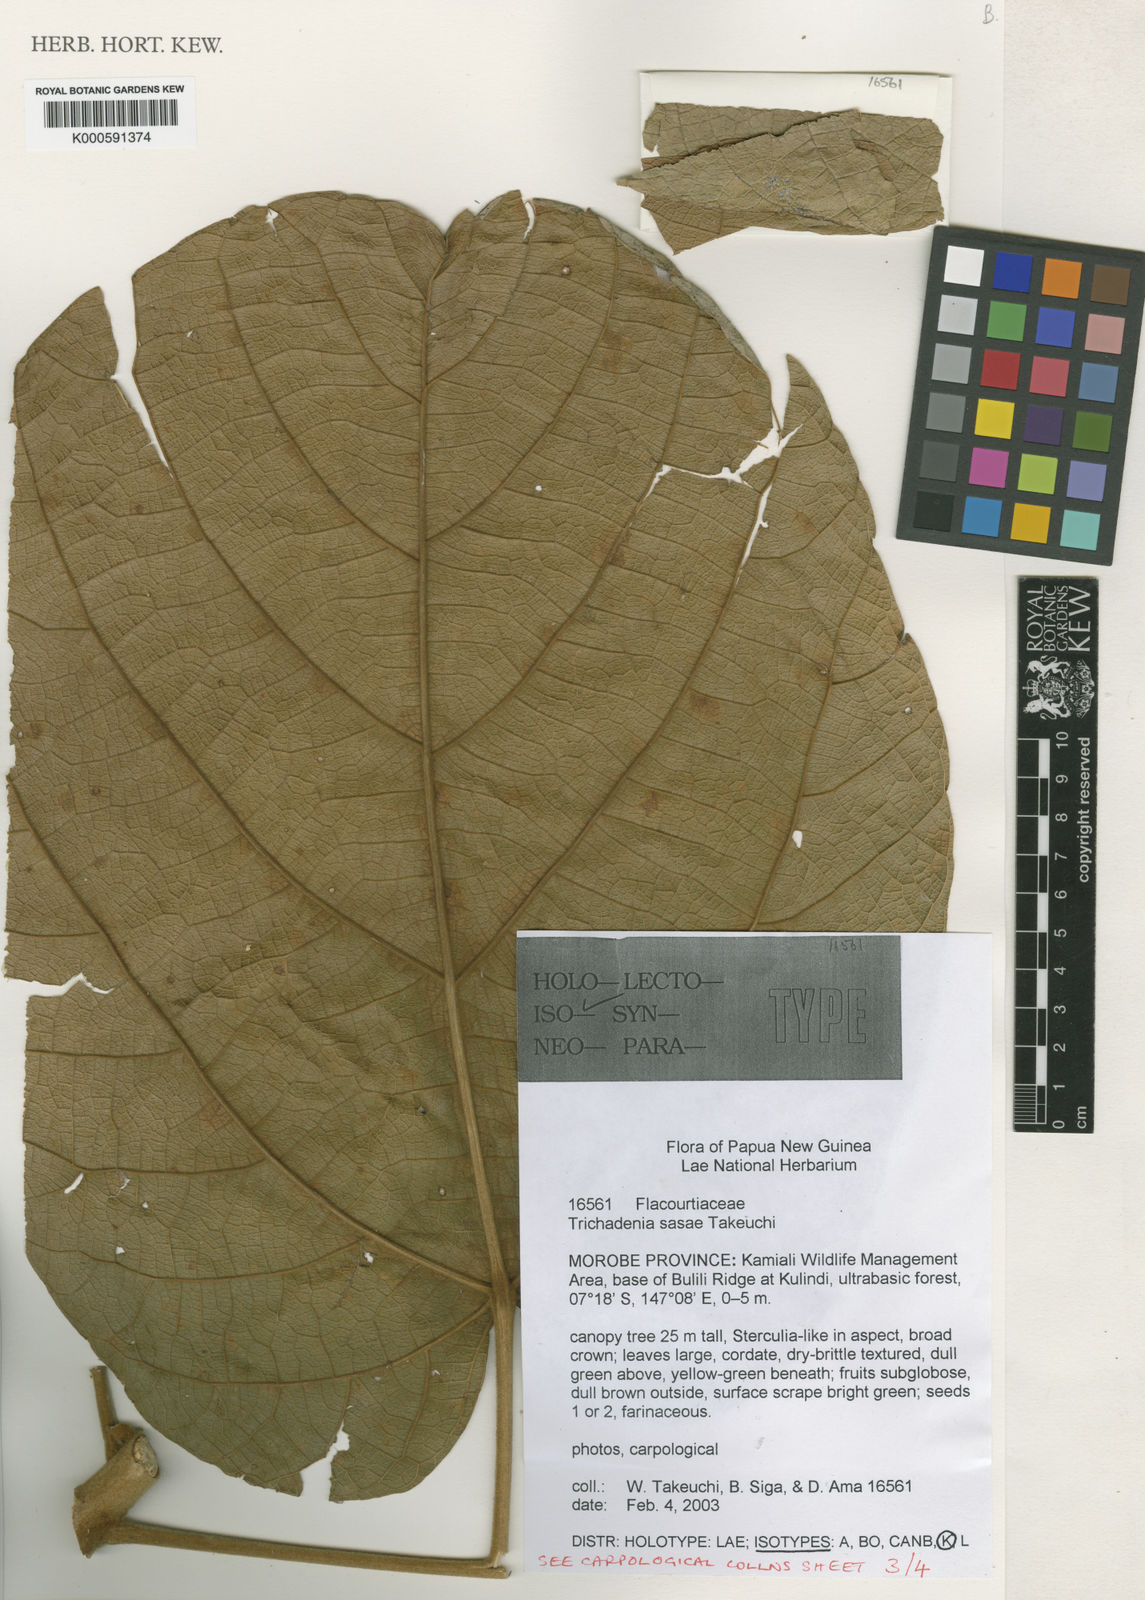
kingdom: Plantae
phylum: Tracheophyta
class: Magnoliopsida
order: Malpighiales
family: Achariaceae
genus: Trichadenia
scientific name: Trichadenia sasae
